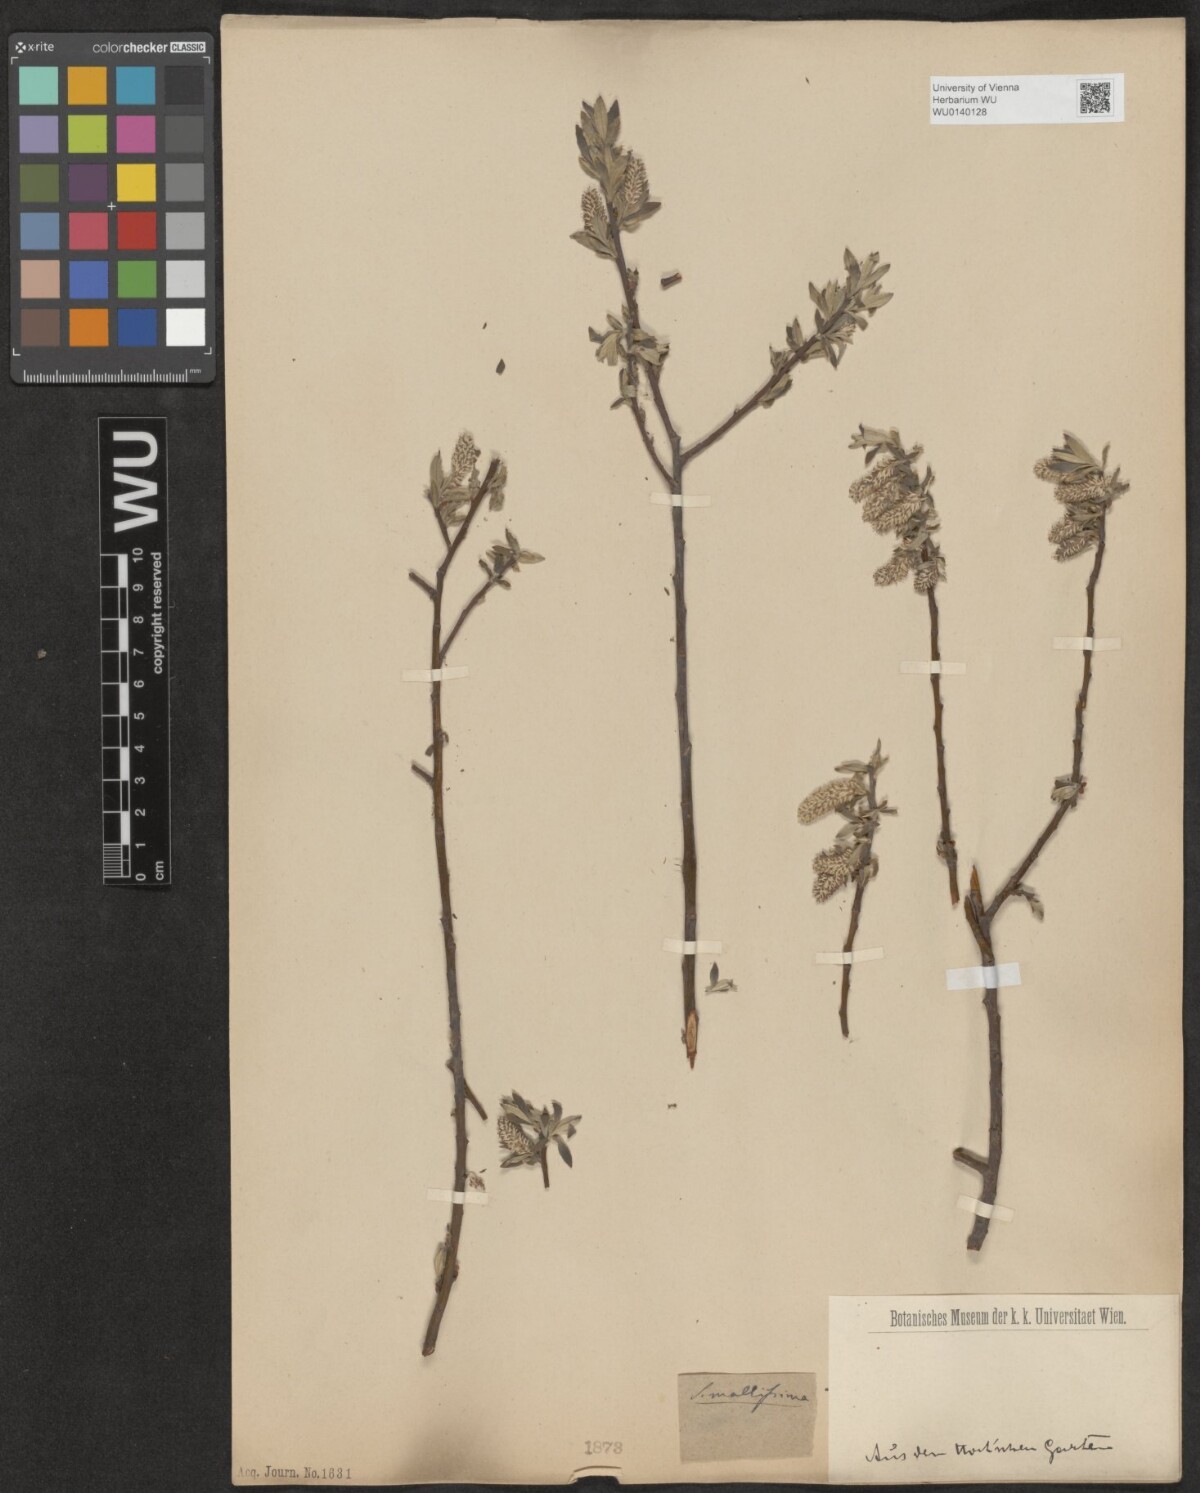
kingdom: Plantae
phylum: Tracheophyta
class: Magnoliopsida
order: Malpighiales
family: Salicaceae
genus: Salix
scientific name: Salix mollissima
